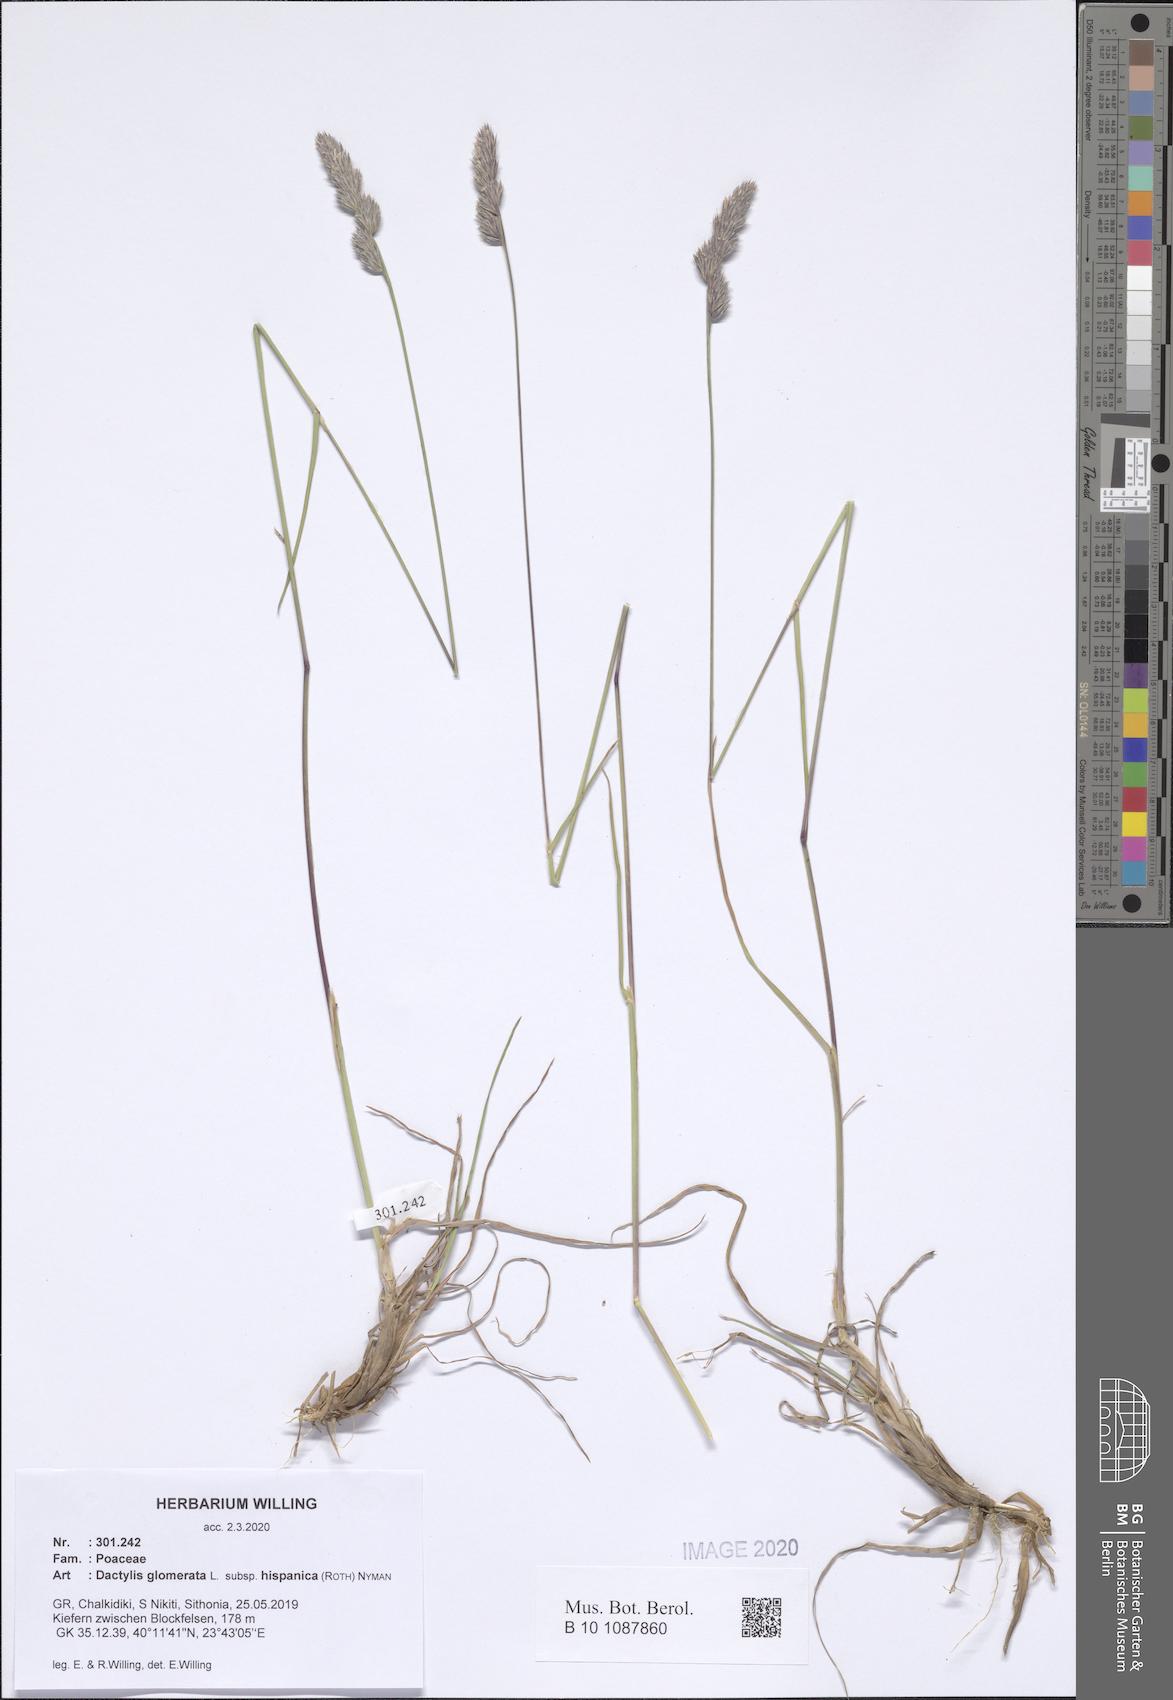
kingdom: Plantae
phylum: Tracheophyta
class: Liliopsida
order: Poales
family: Poaceae
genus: Dactylis
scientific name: Dactylis glomerata
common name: Orchardgrass
